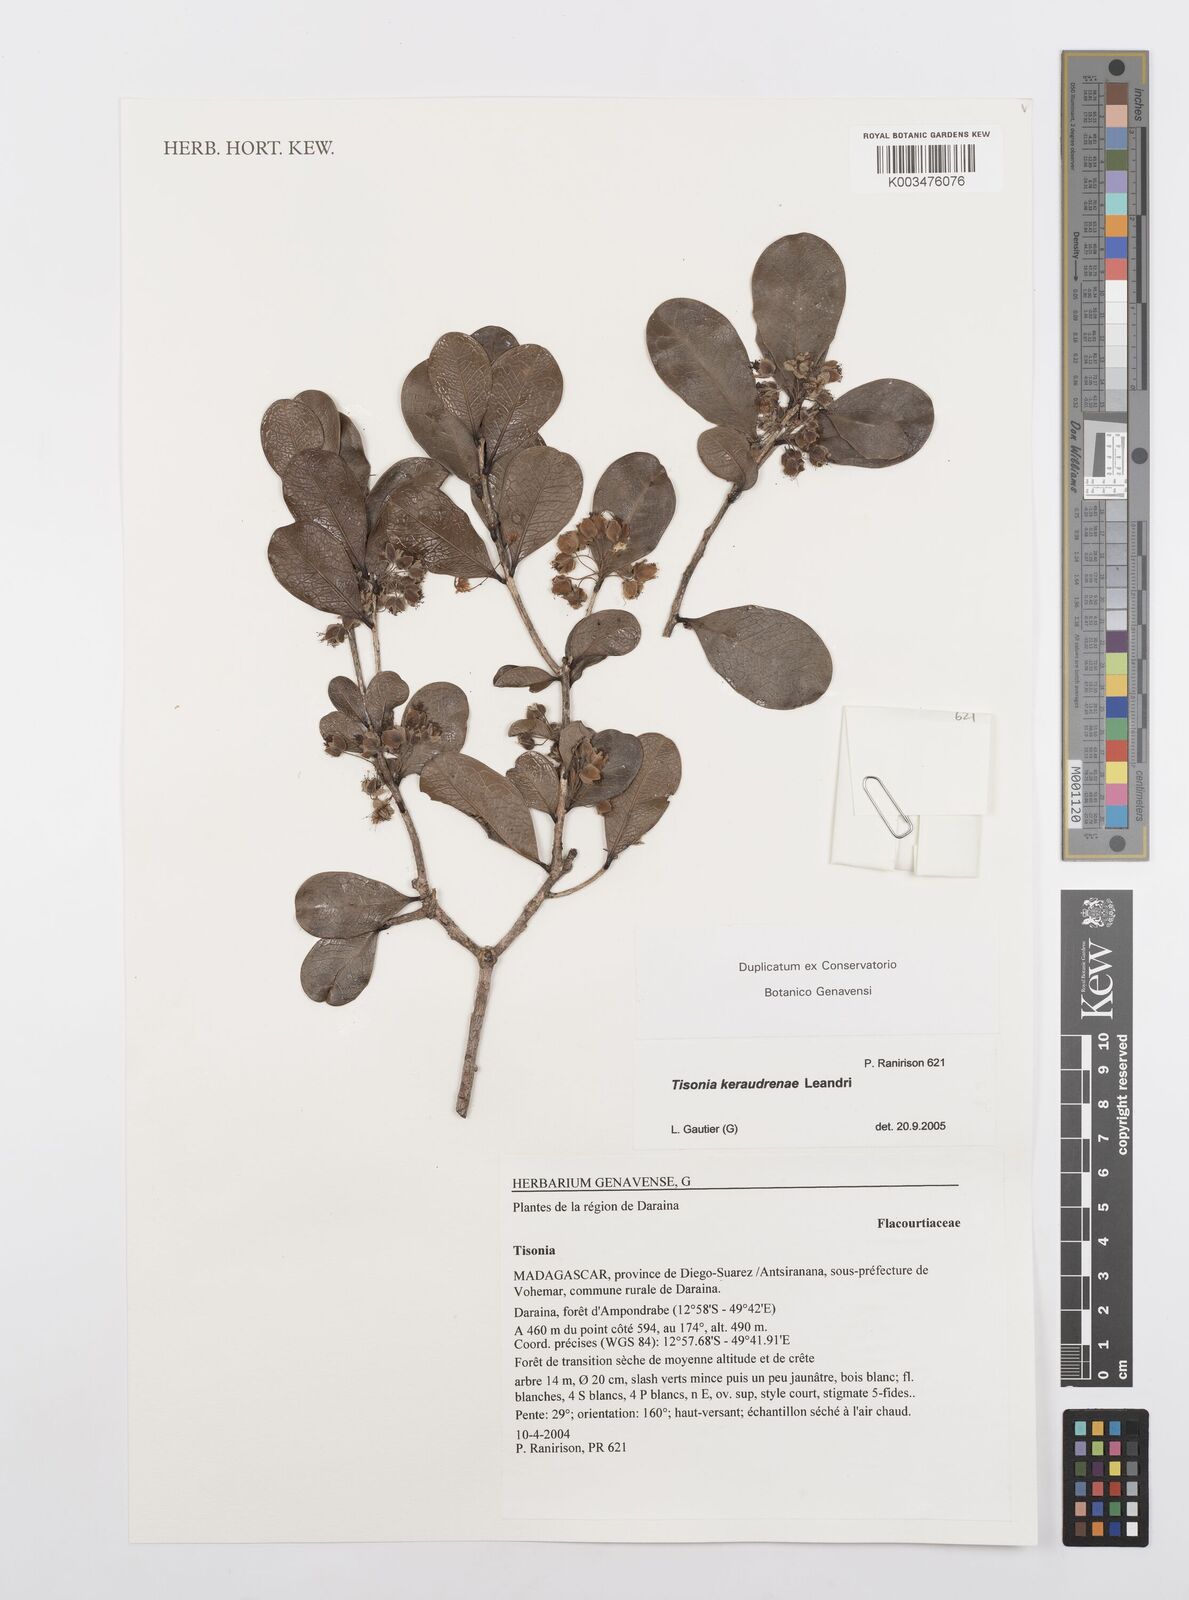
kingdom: Plantae
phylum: Tracheophyta
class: Magnoliopsida
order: Malpighiales
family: Salicaceae
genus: Tisonia
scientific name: Tisonia keraudrenae
